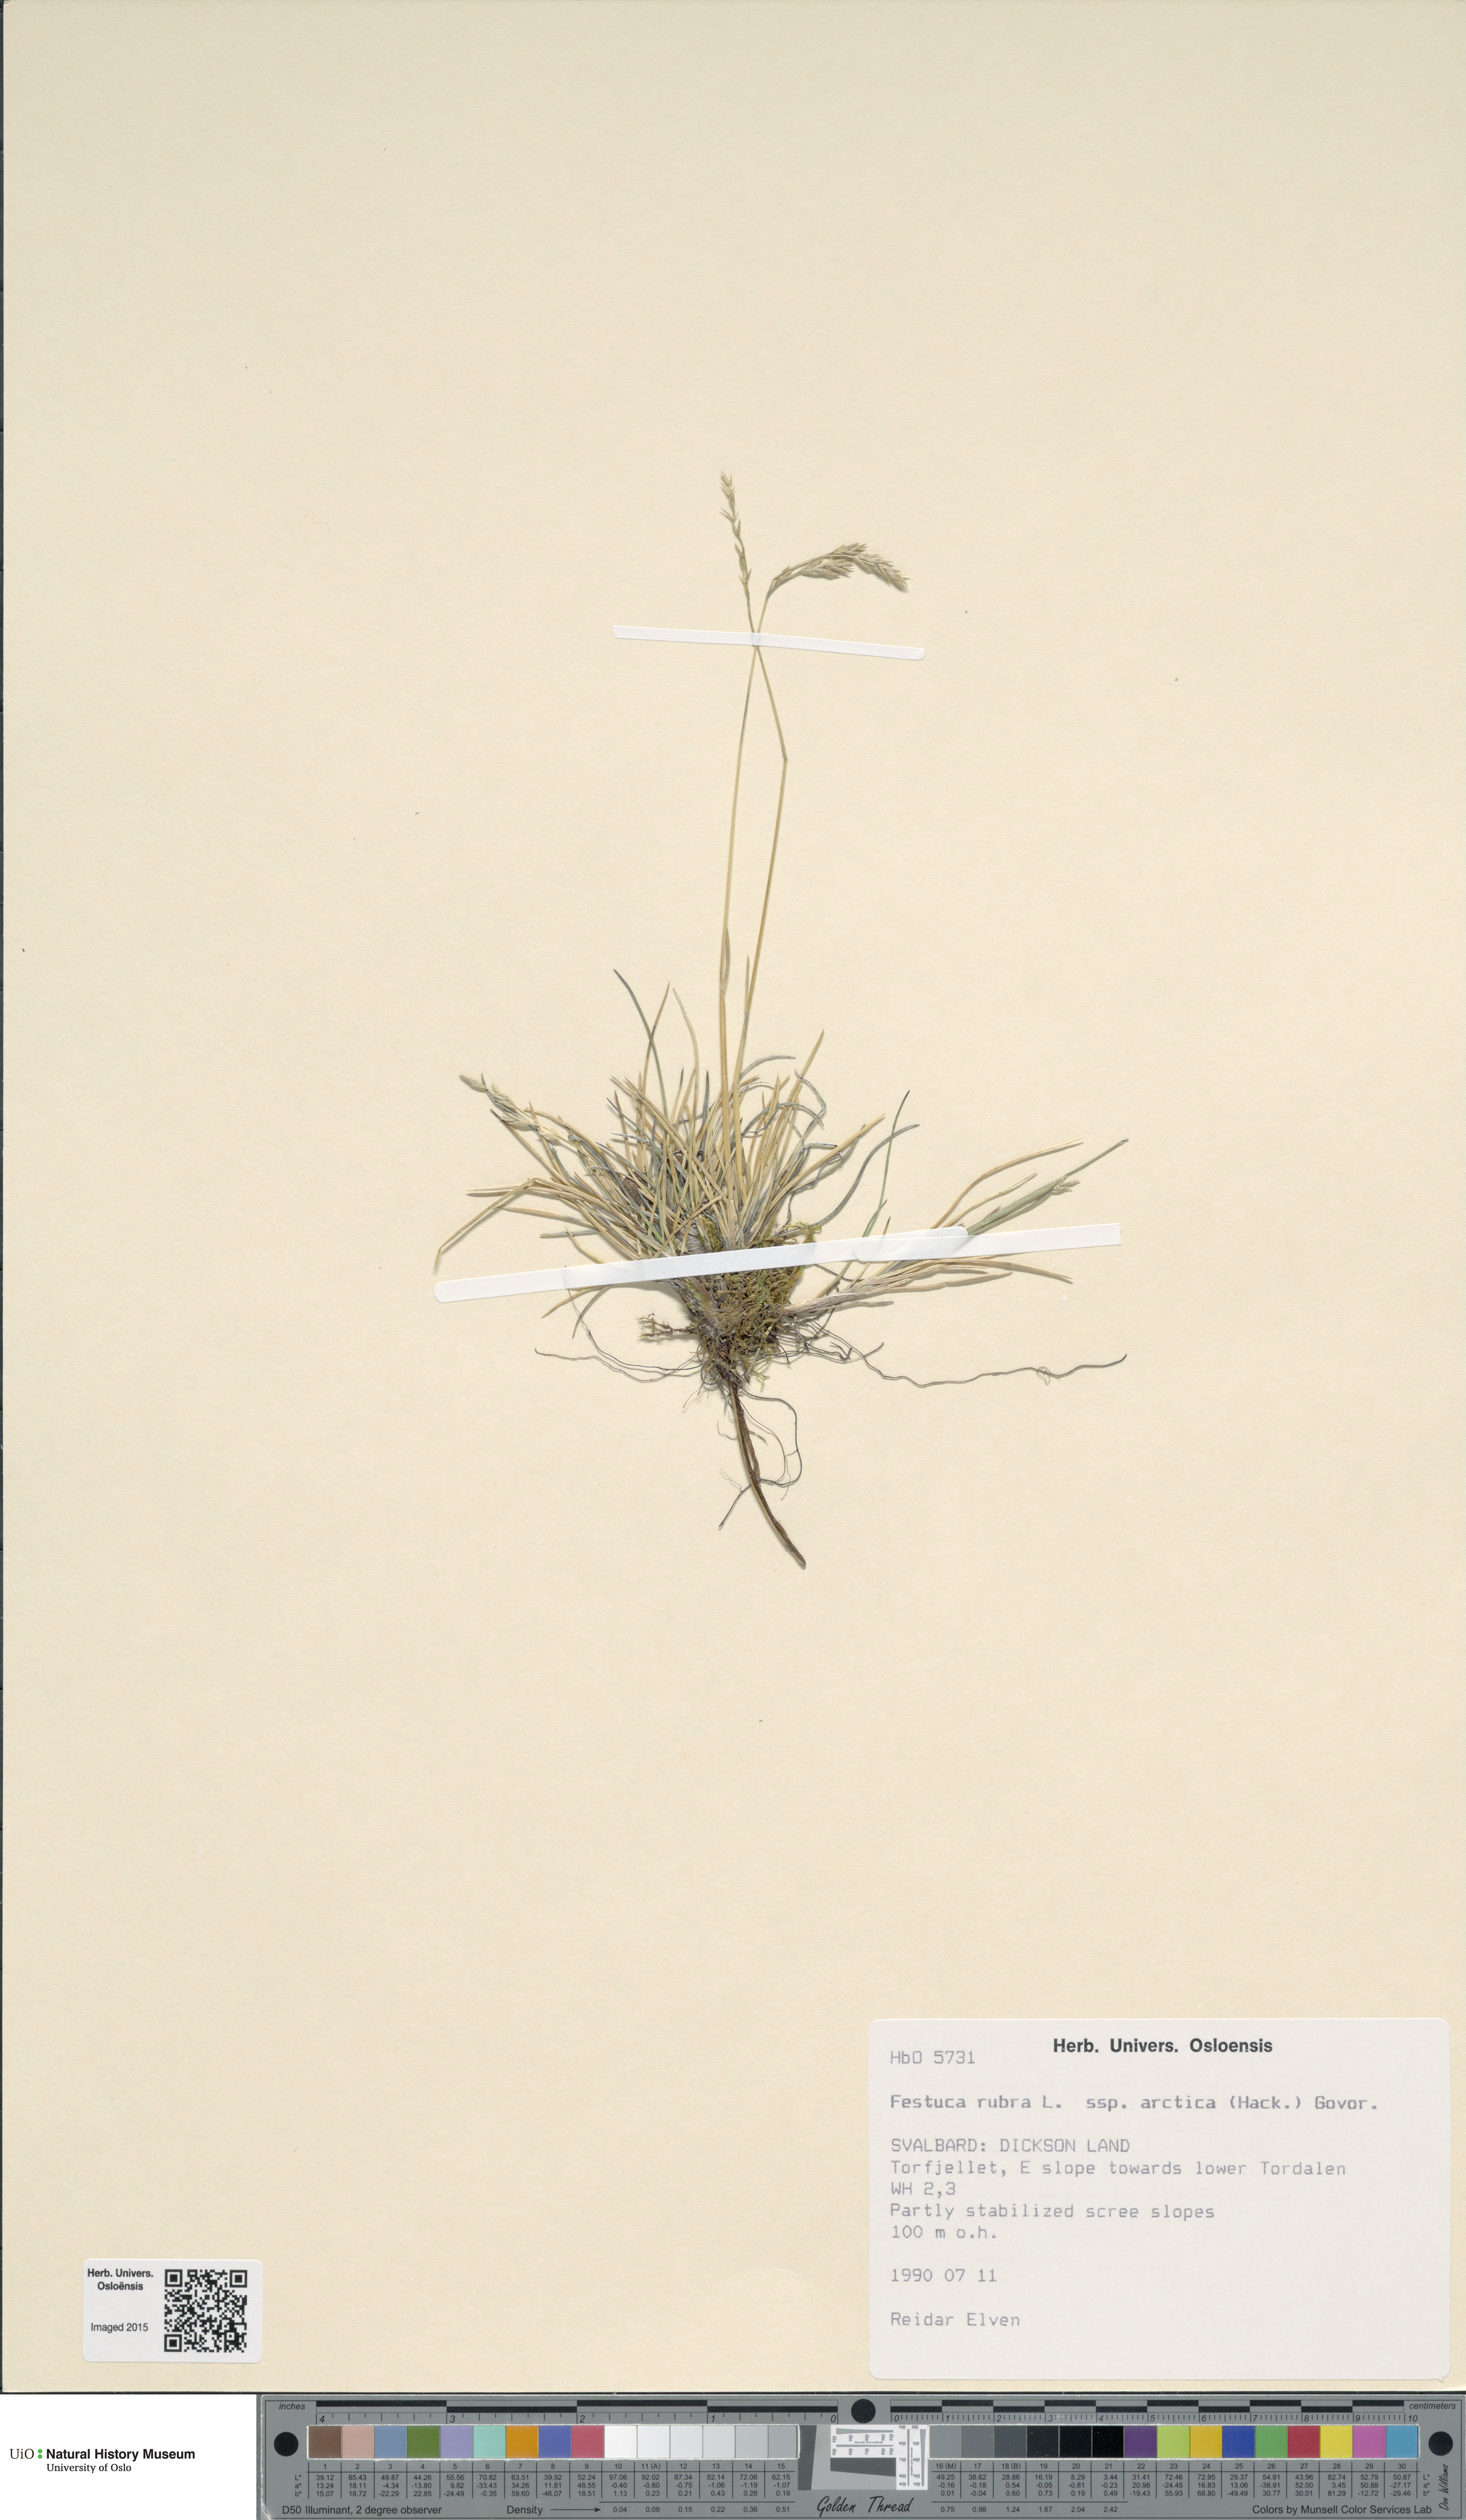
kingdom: Plantae
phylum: Tracheophyta
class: Liliopsida
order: Poales
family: Poaceae
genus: Festuca
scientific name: Festuca richardsonii
